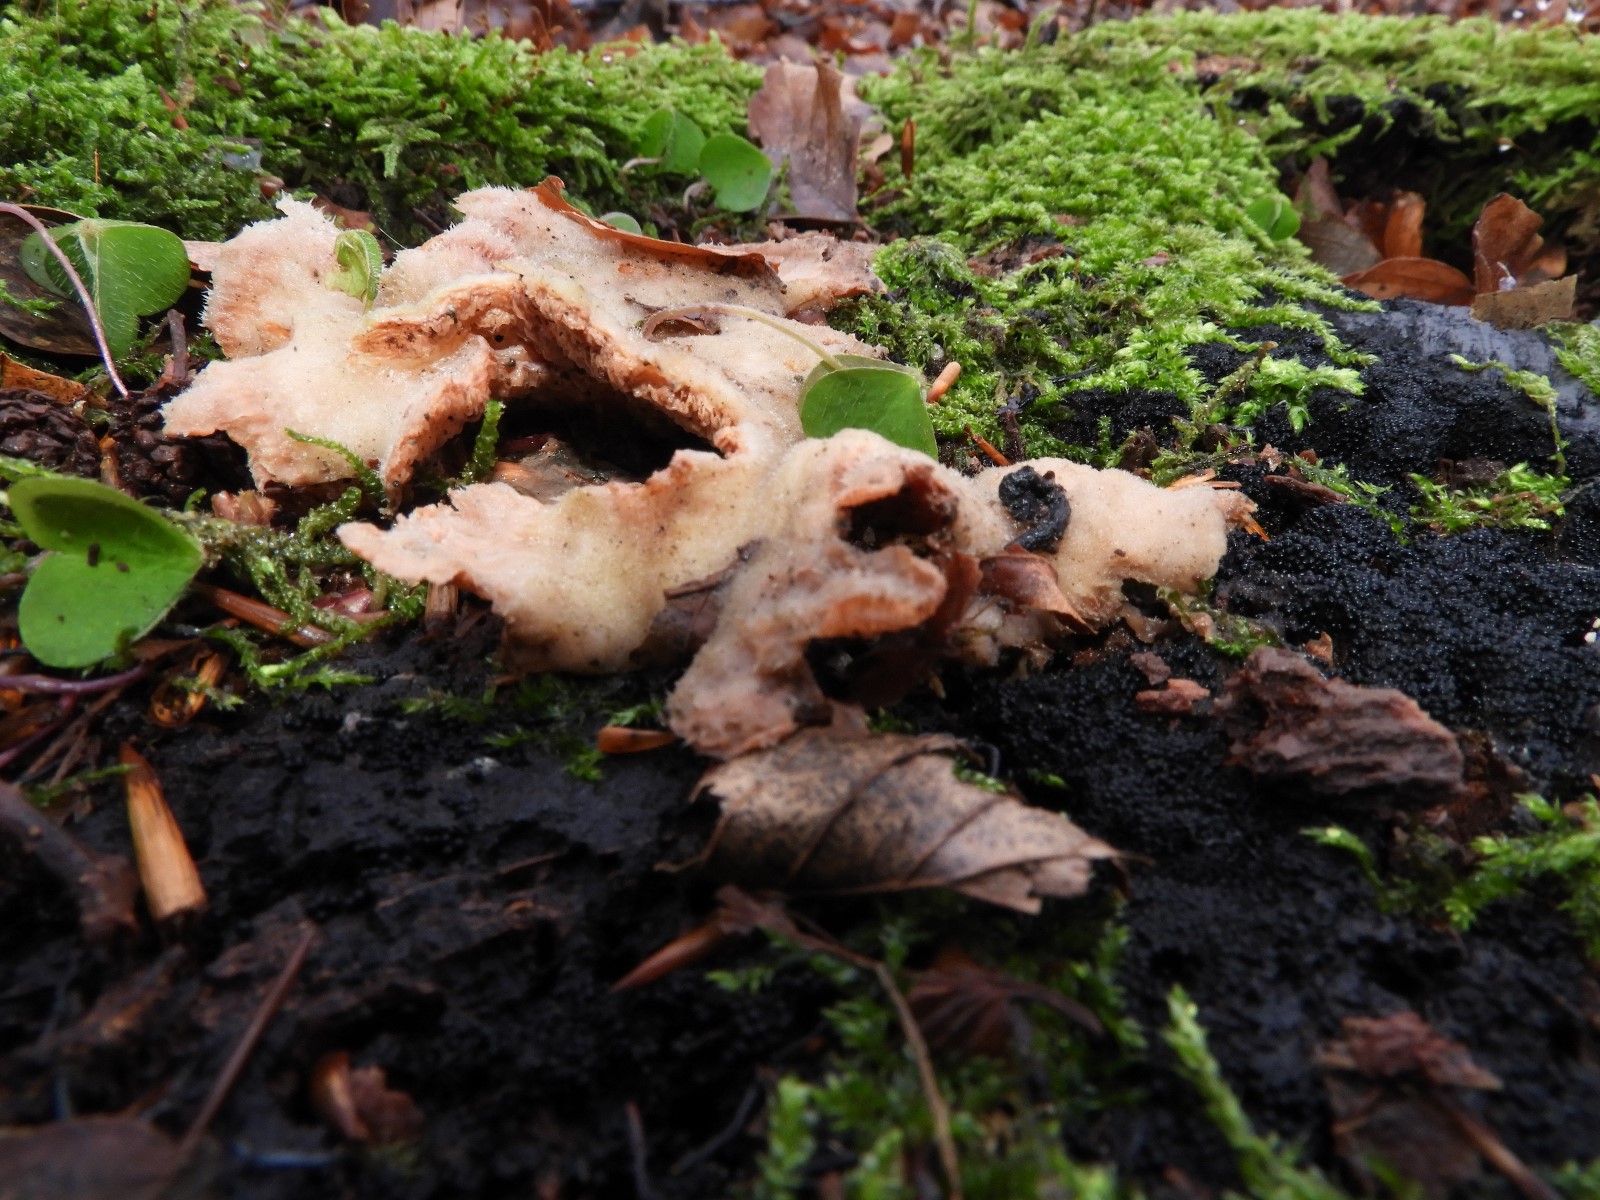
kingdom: Fungi
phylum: Basidiomycota
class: Agaricomycetes
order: Polyporales
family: Meruliaceae
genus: Phlebia
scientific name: Phlebia tremellosa
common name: bævrende åresvamp
